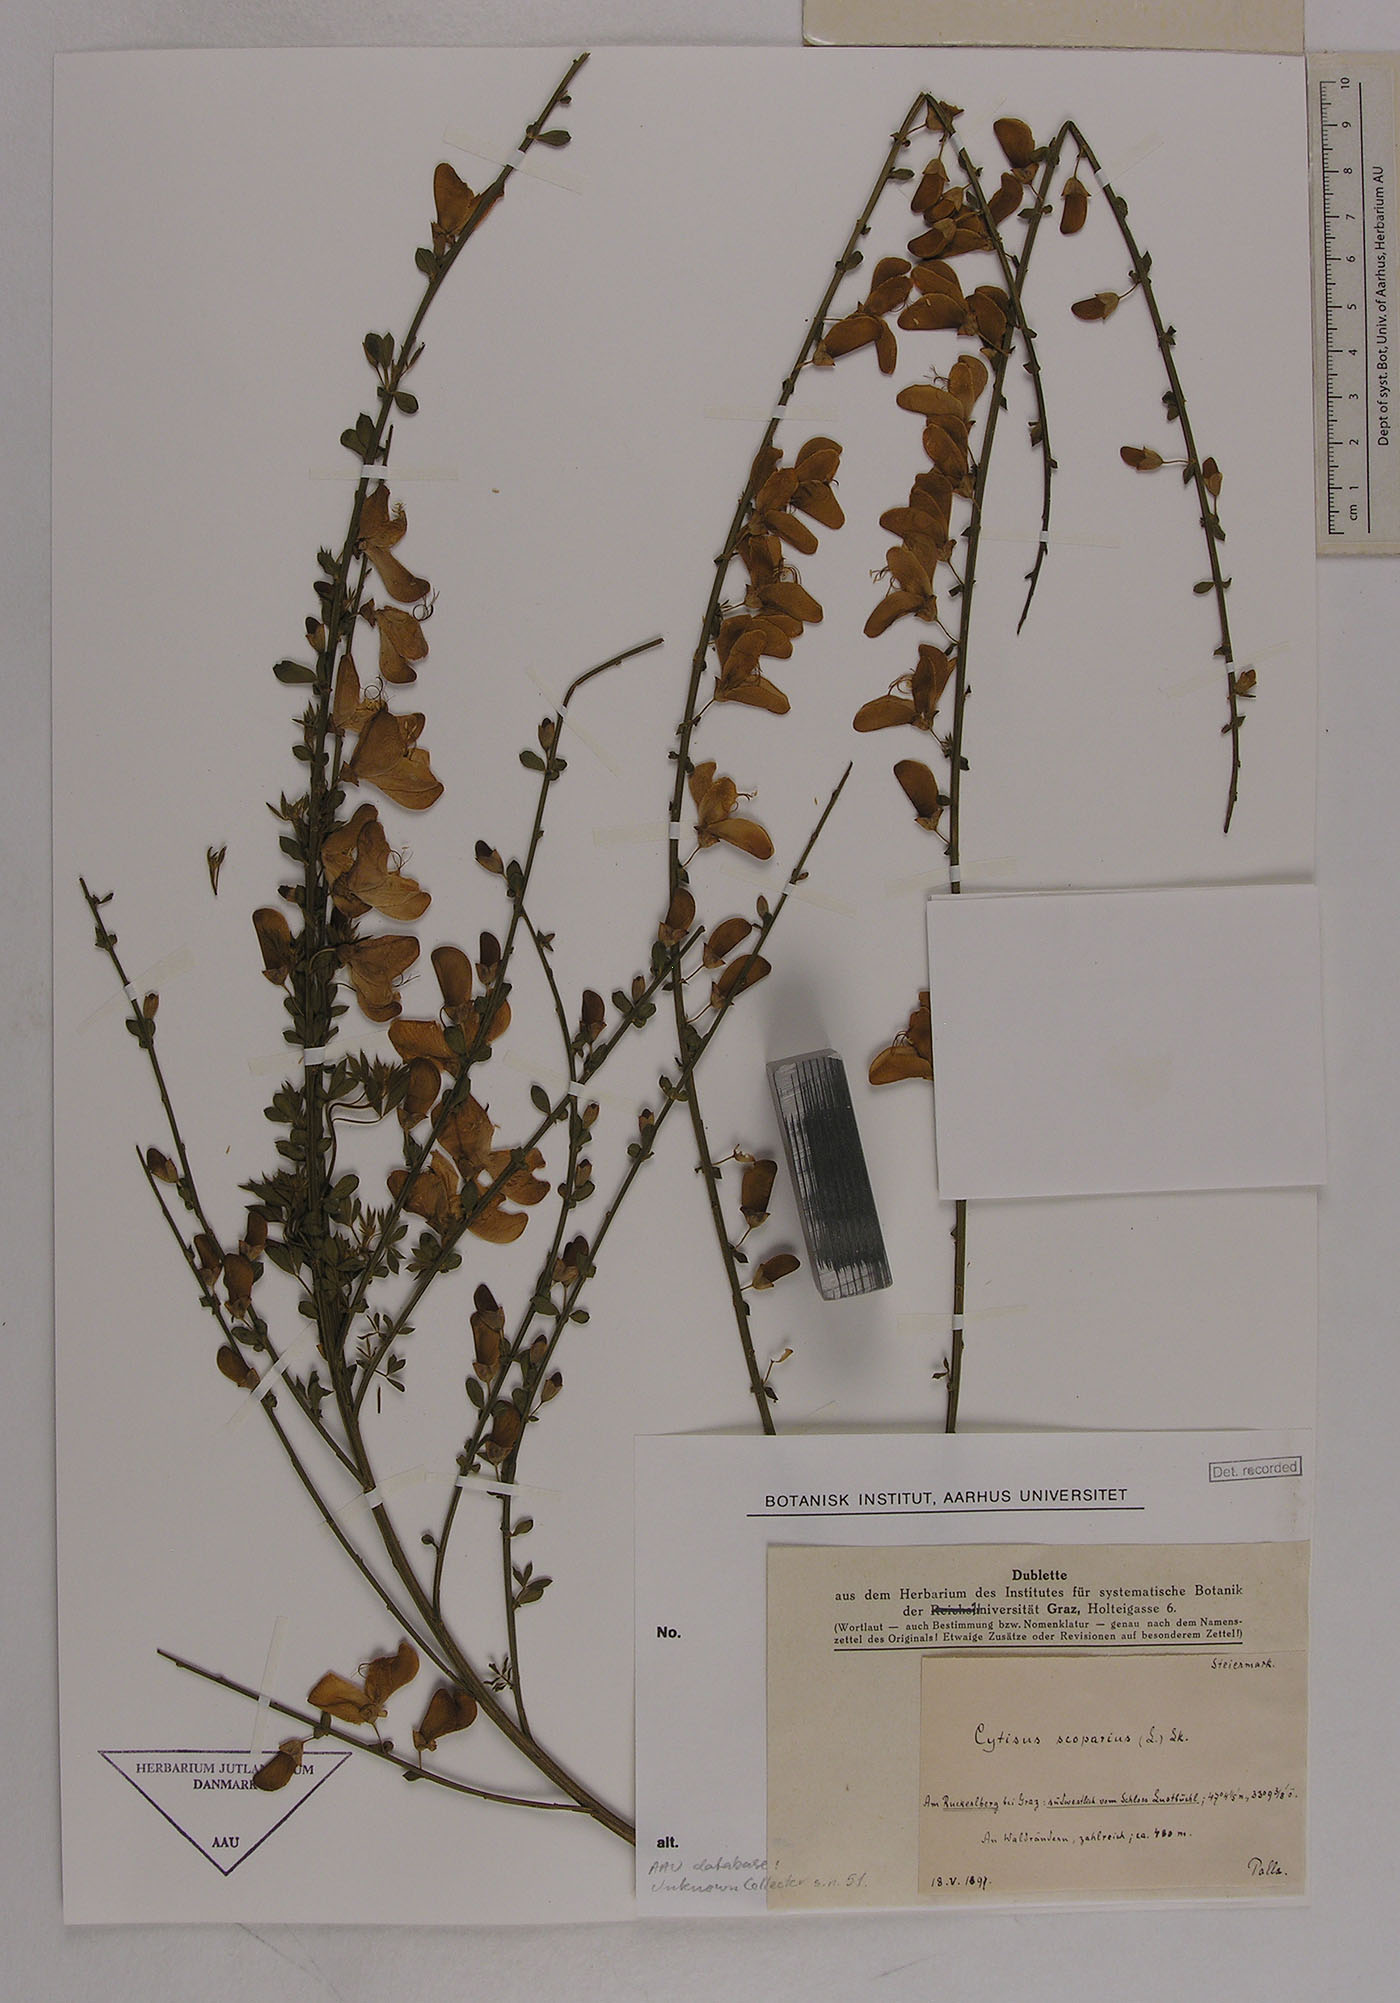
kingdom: Plantae
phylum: Tracheophyta
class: Magnoliopsida
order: Fabales
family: Fabaceae
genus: Cytisus
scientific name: Cytisus scoparius
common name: Scotch broom
